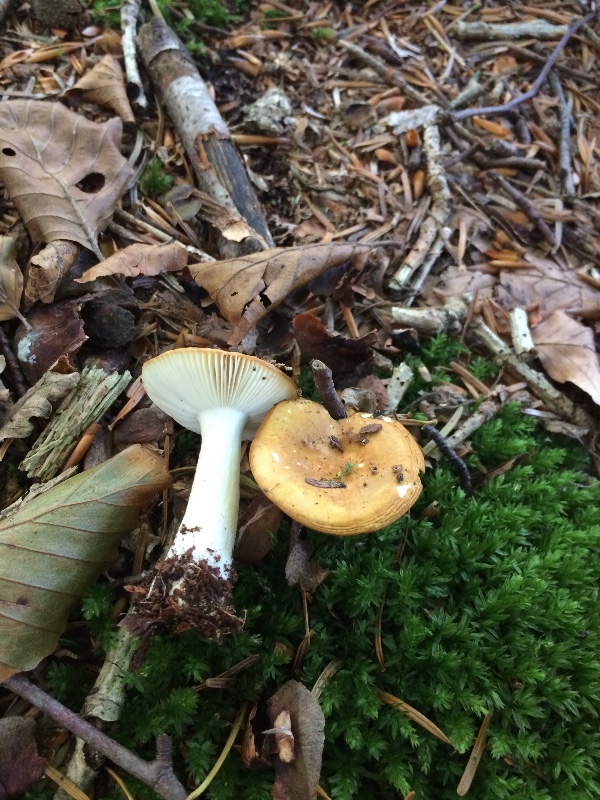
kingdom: Fungi
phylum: Basidiomycota
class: Agaricomycetes
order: Russulales
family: Russulaceae
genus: Russula
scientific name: Russula ochroleuca
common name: okkergul skørhat
